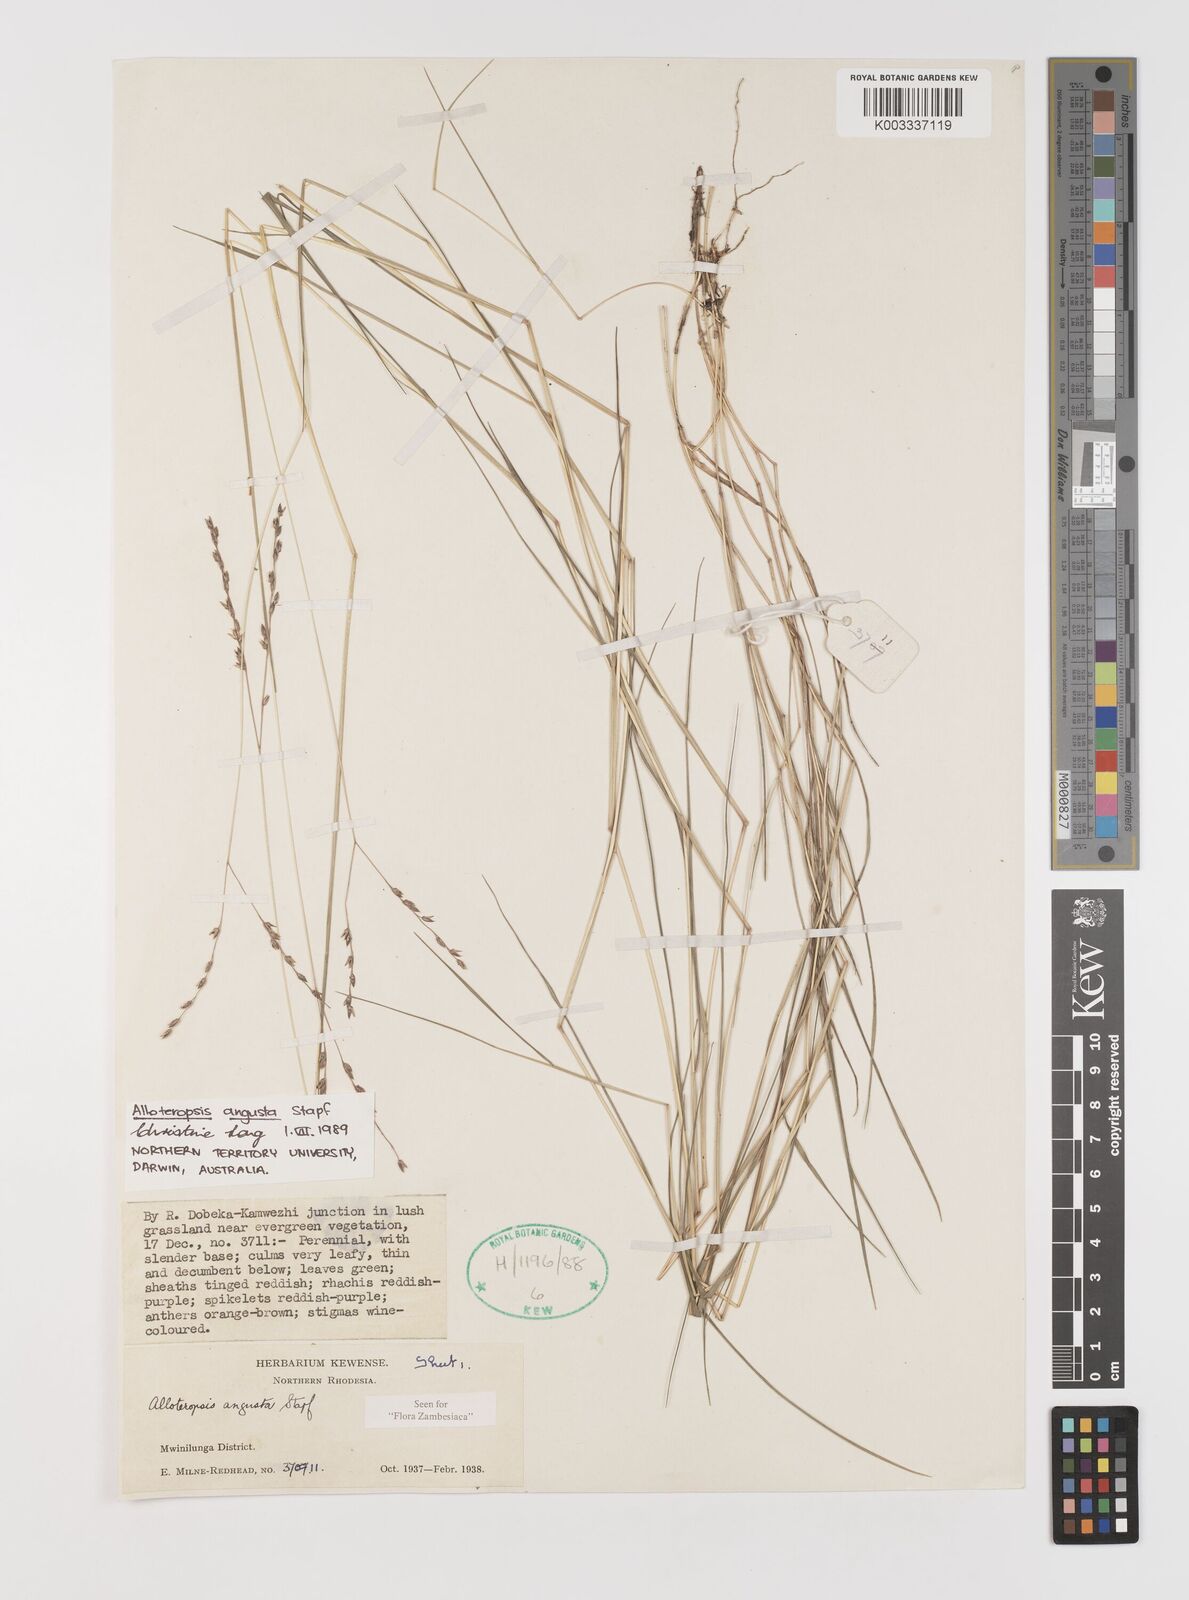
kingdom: Plantae
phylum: Tracheophyta
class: Liliopsida
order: Poales
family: Poaceae
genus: Alloteropsis
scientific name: Alloteropsis angusta
